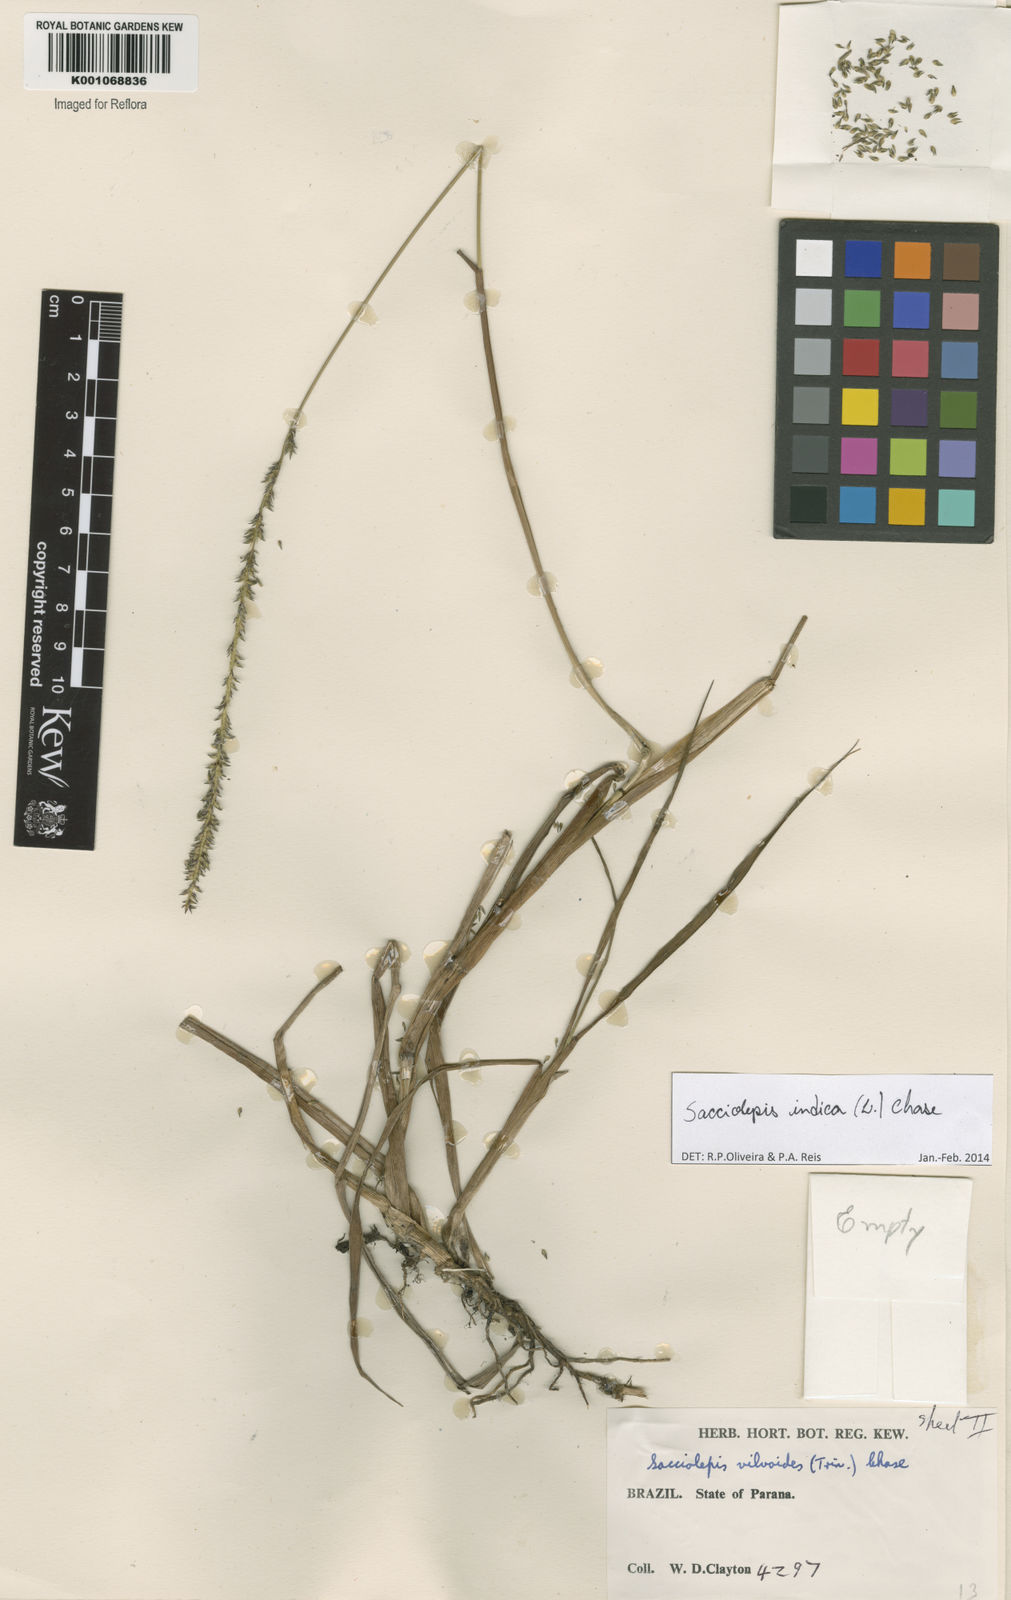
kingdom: Plantae
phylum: Tracheophyta
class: Liliopsida
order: Poales
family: Poaceae
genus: Sacciolepis
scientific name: Sacciolepis indica
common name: Glenwoodgrass
